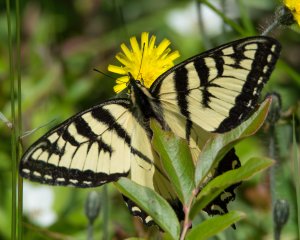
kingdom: Animalia
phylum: Arthropoda
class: Insecta
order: Lepidoptera
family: Papilionidae
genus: Pterourus
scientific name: Pterourus canadensis
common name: Canadian Tiger Swallowtail
